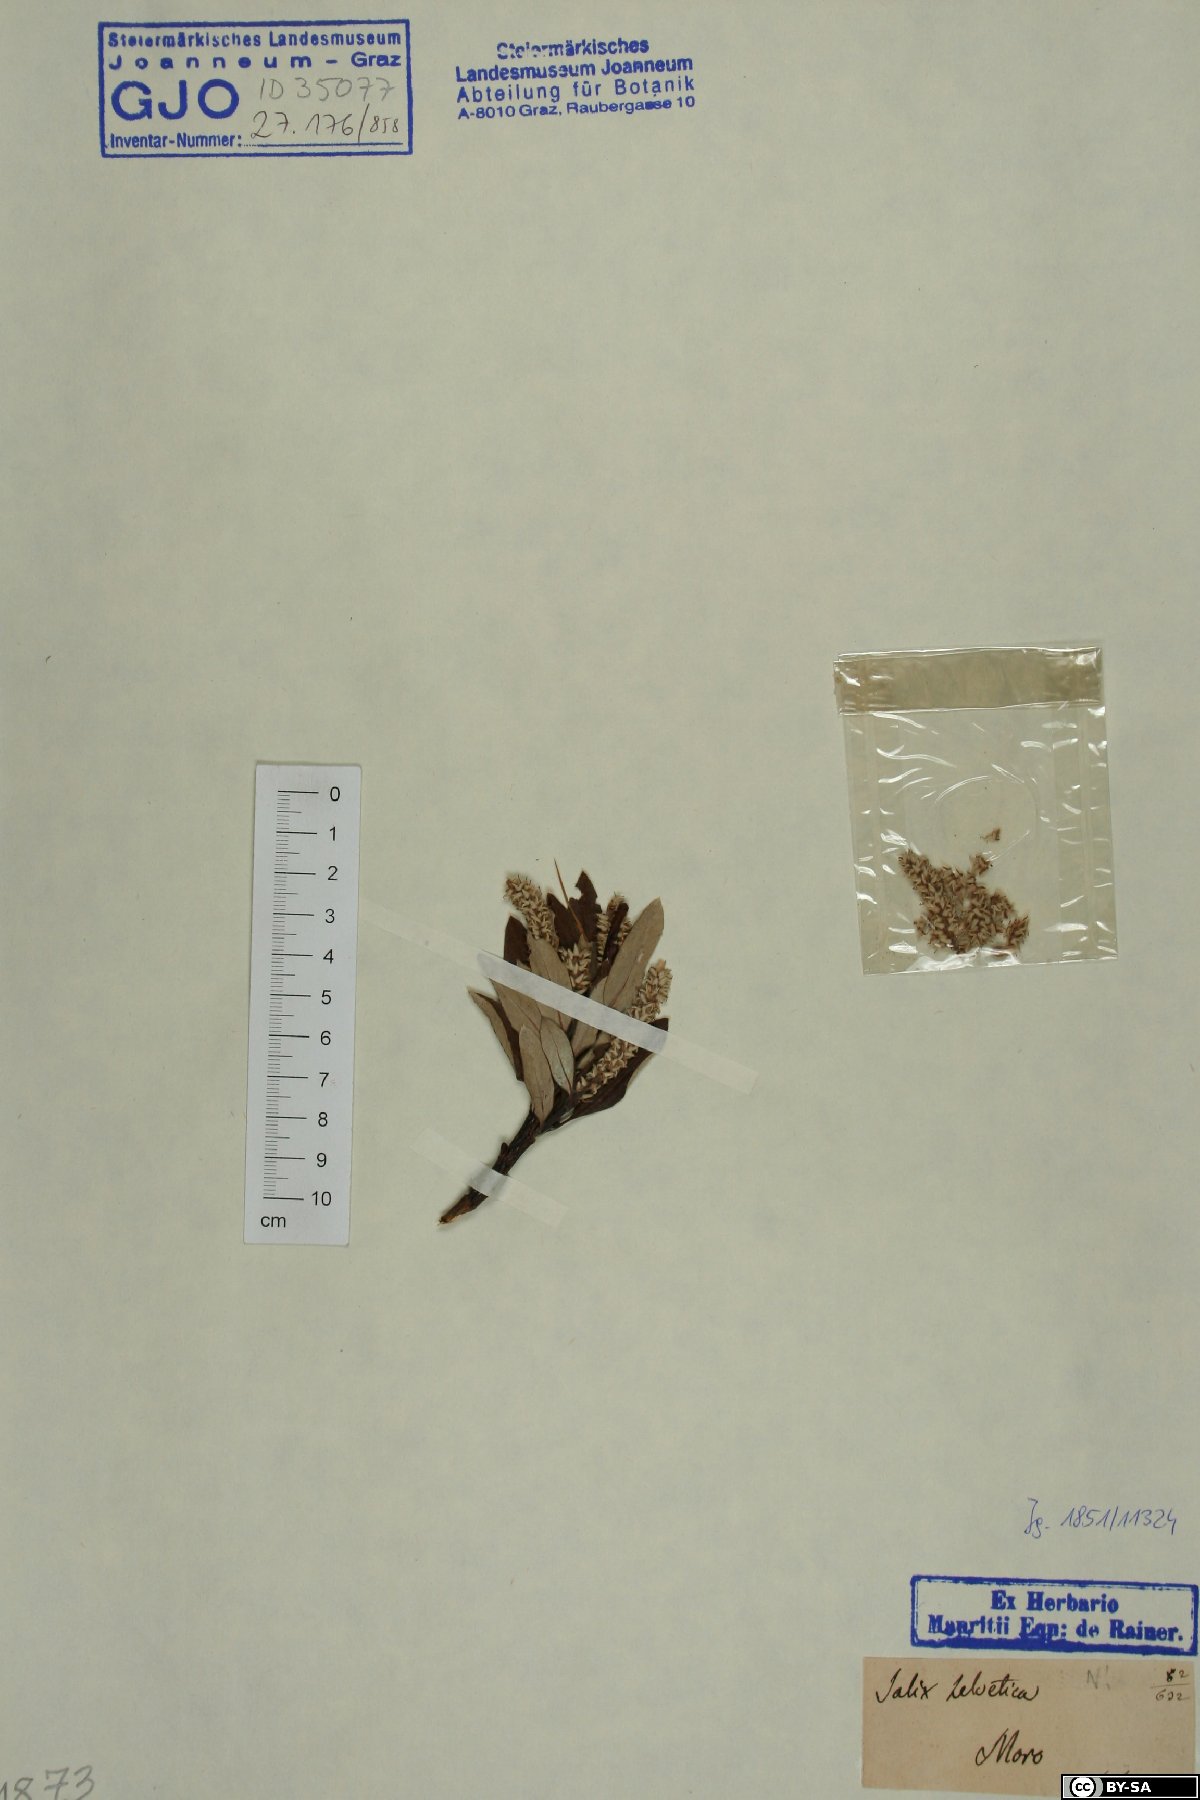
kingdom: Plantae
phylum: Tracheophyta
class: Magnoliopsida
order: Malpighiales
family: Salicaceae
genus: Salix
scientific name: Salix helvetica
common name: Swiss willow
